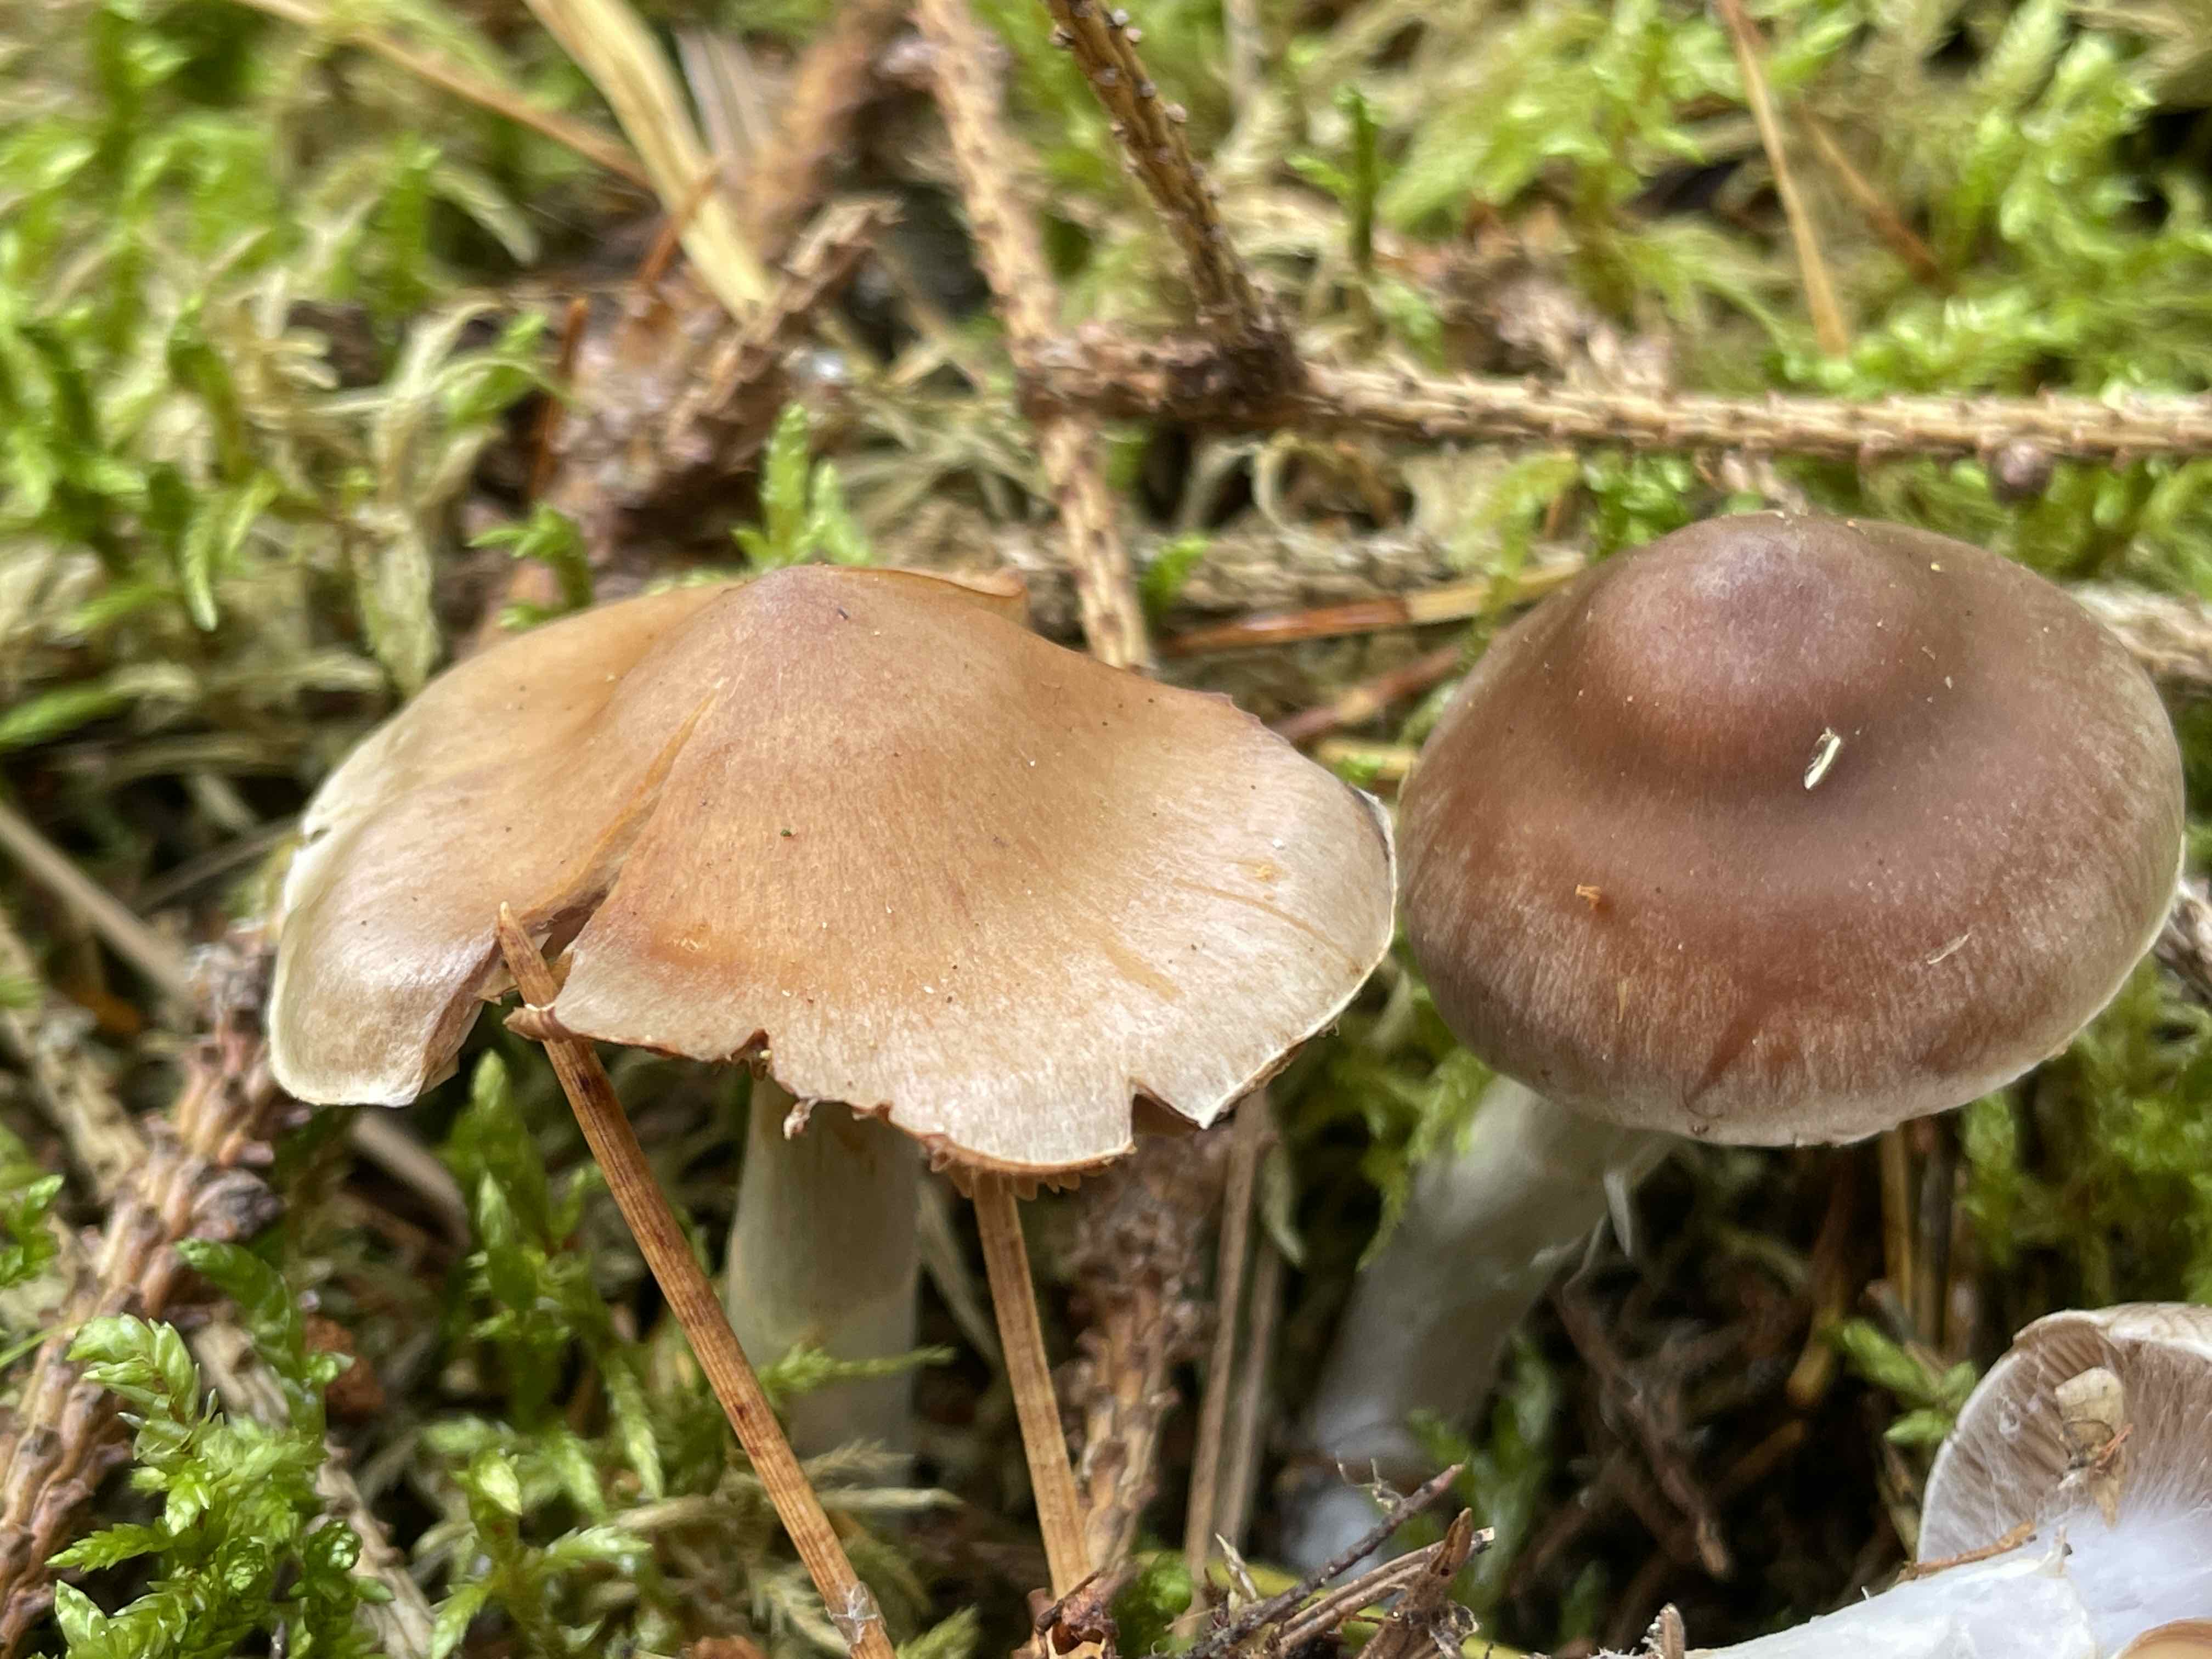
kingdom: Fungi
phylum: Basidiomycota
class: Agaricomycetes
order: Agaricales
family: Cortinariaceae
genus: Cortinarius
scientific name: Cortinarius
